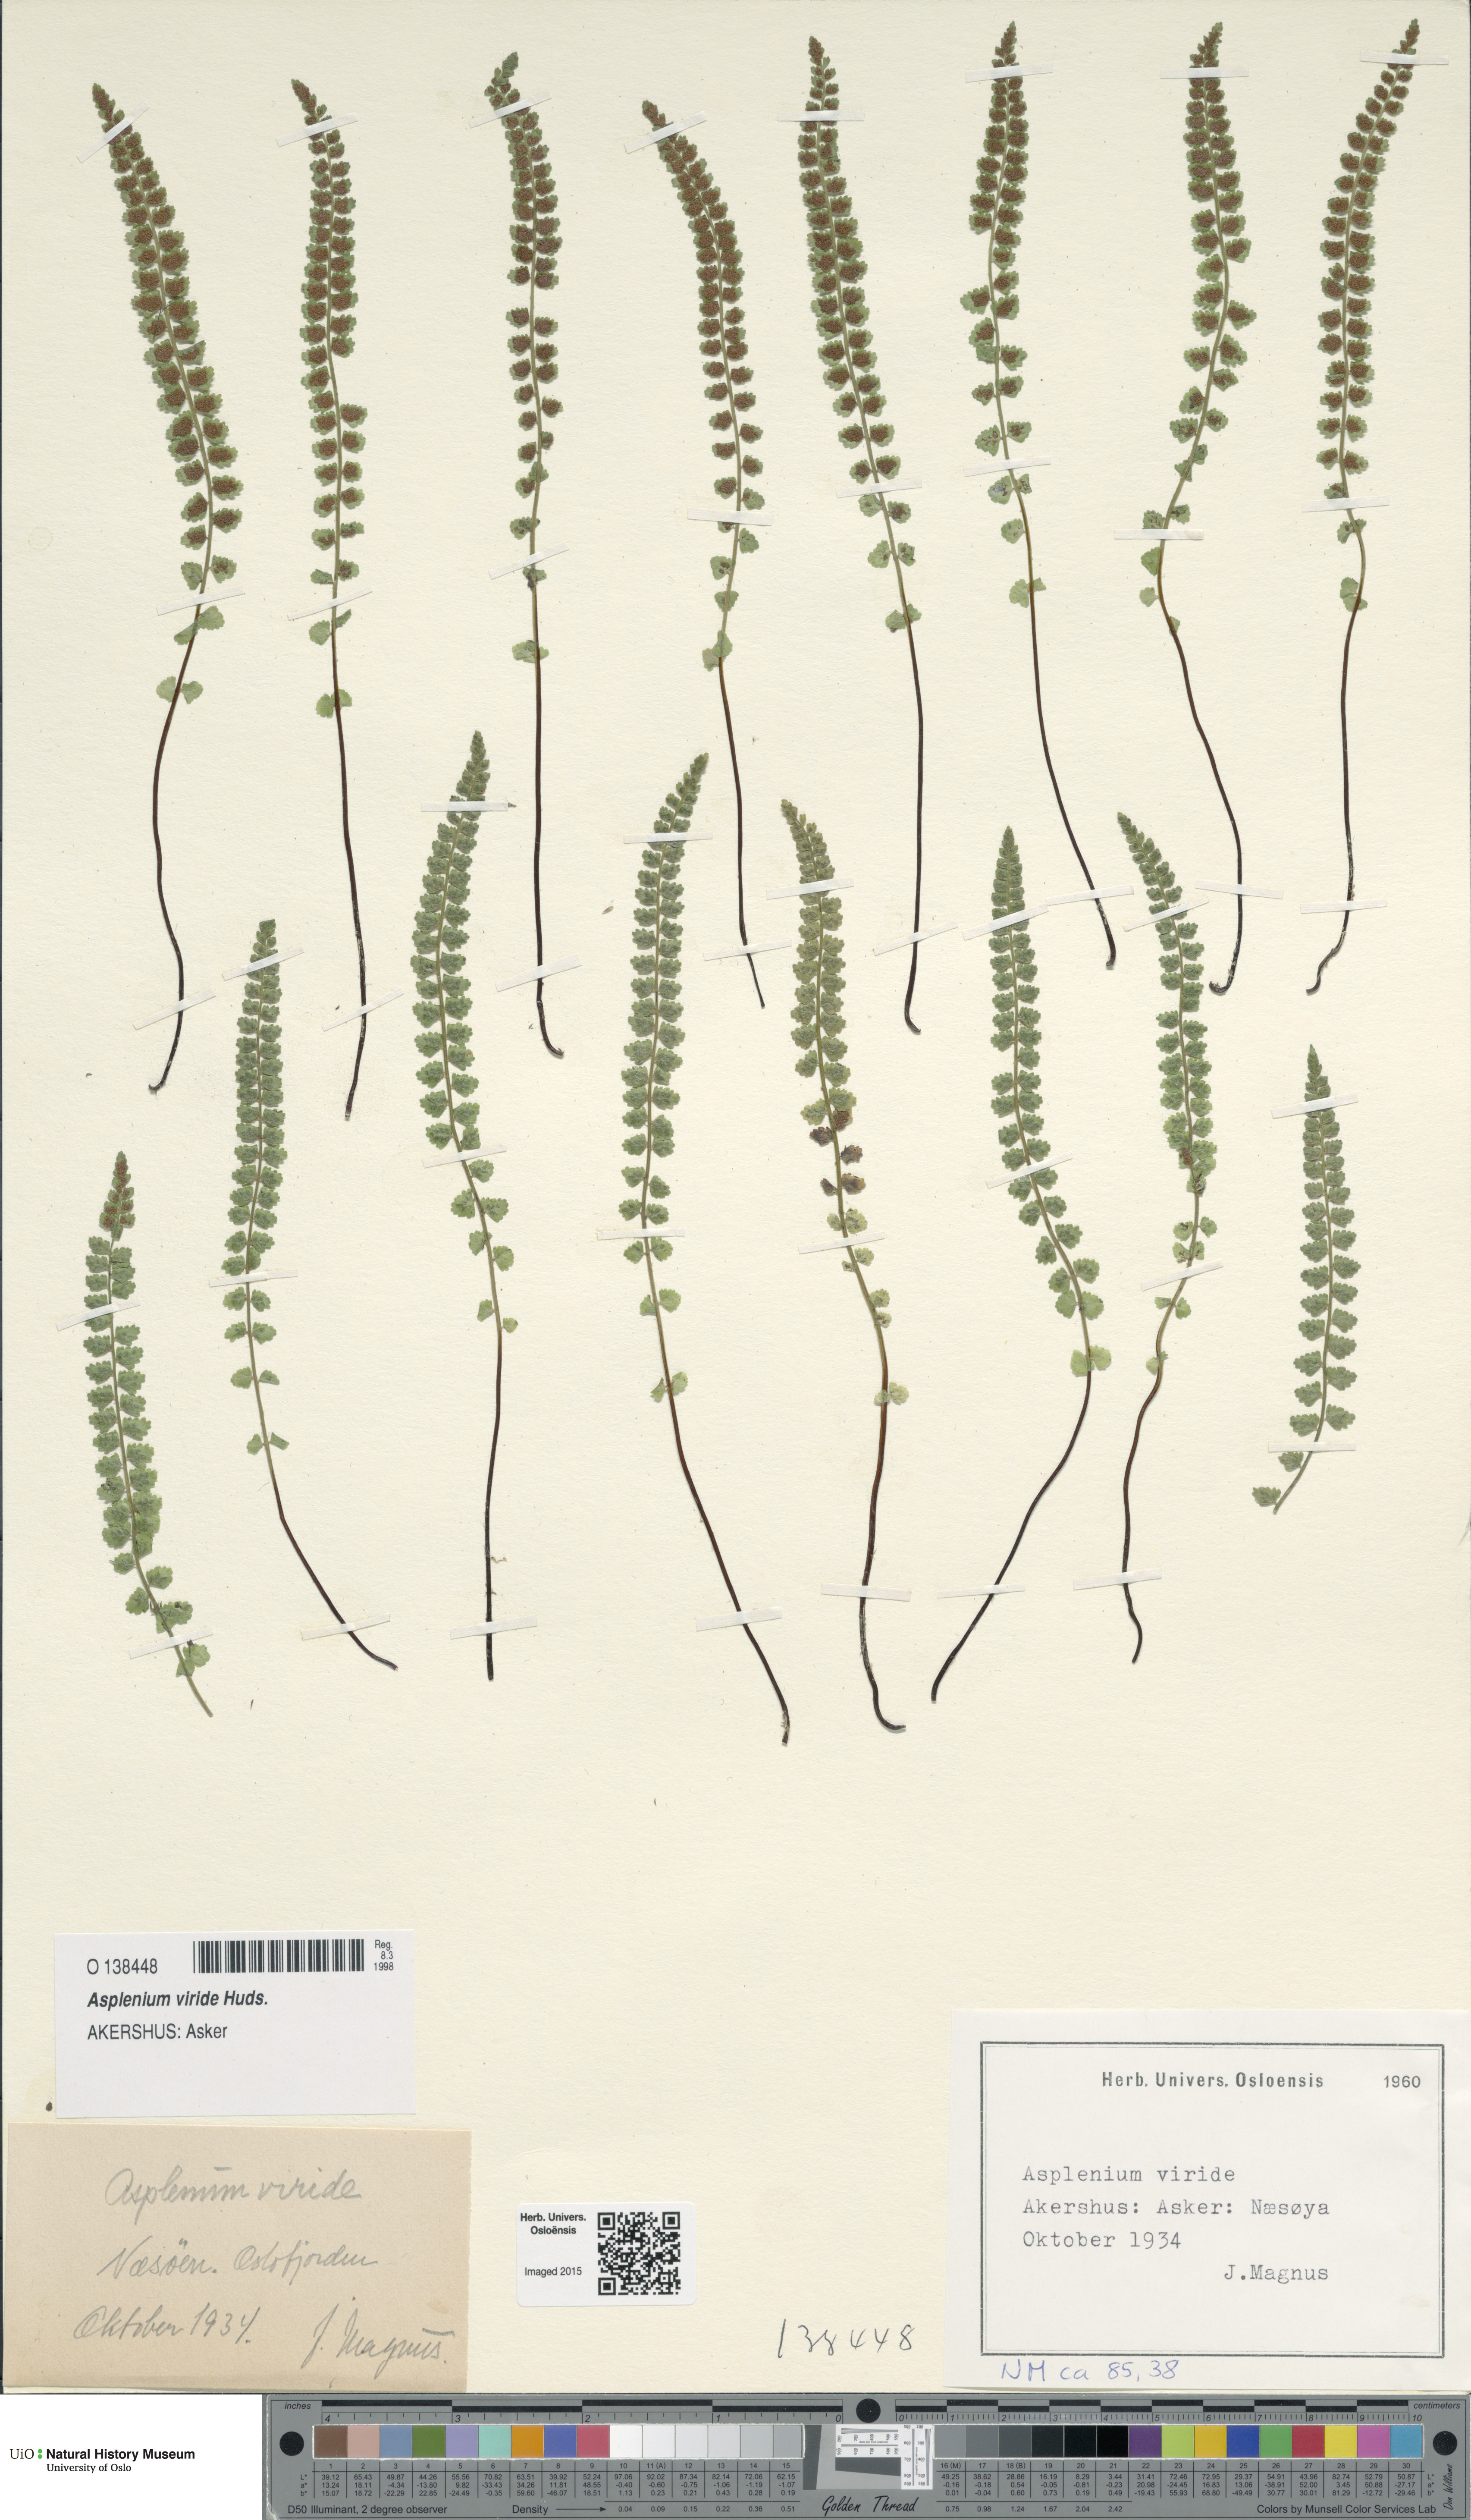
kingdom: Plantae
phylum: Tracheophyta
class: Polypodiopsida
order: Polypodiales
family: Aspleniaceae
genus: Asplenium
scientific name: Asplenium viride
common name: Green spleenwort
